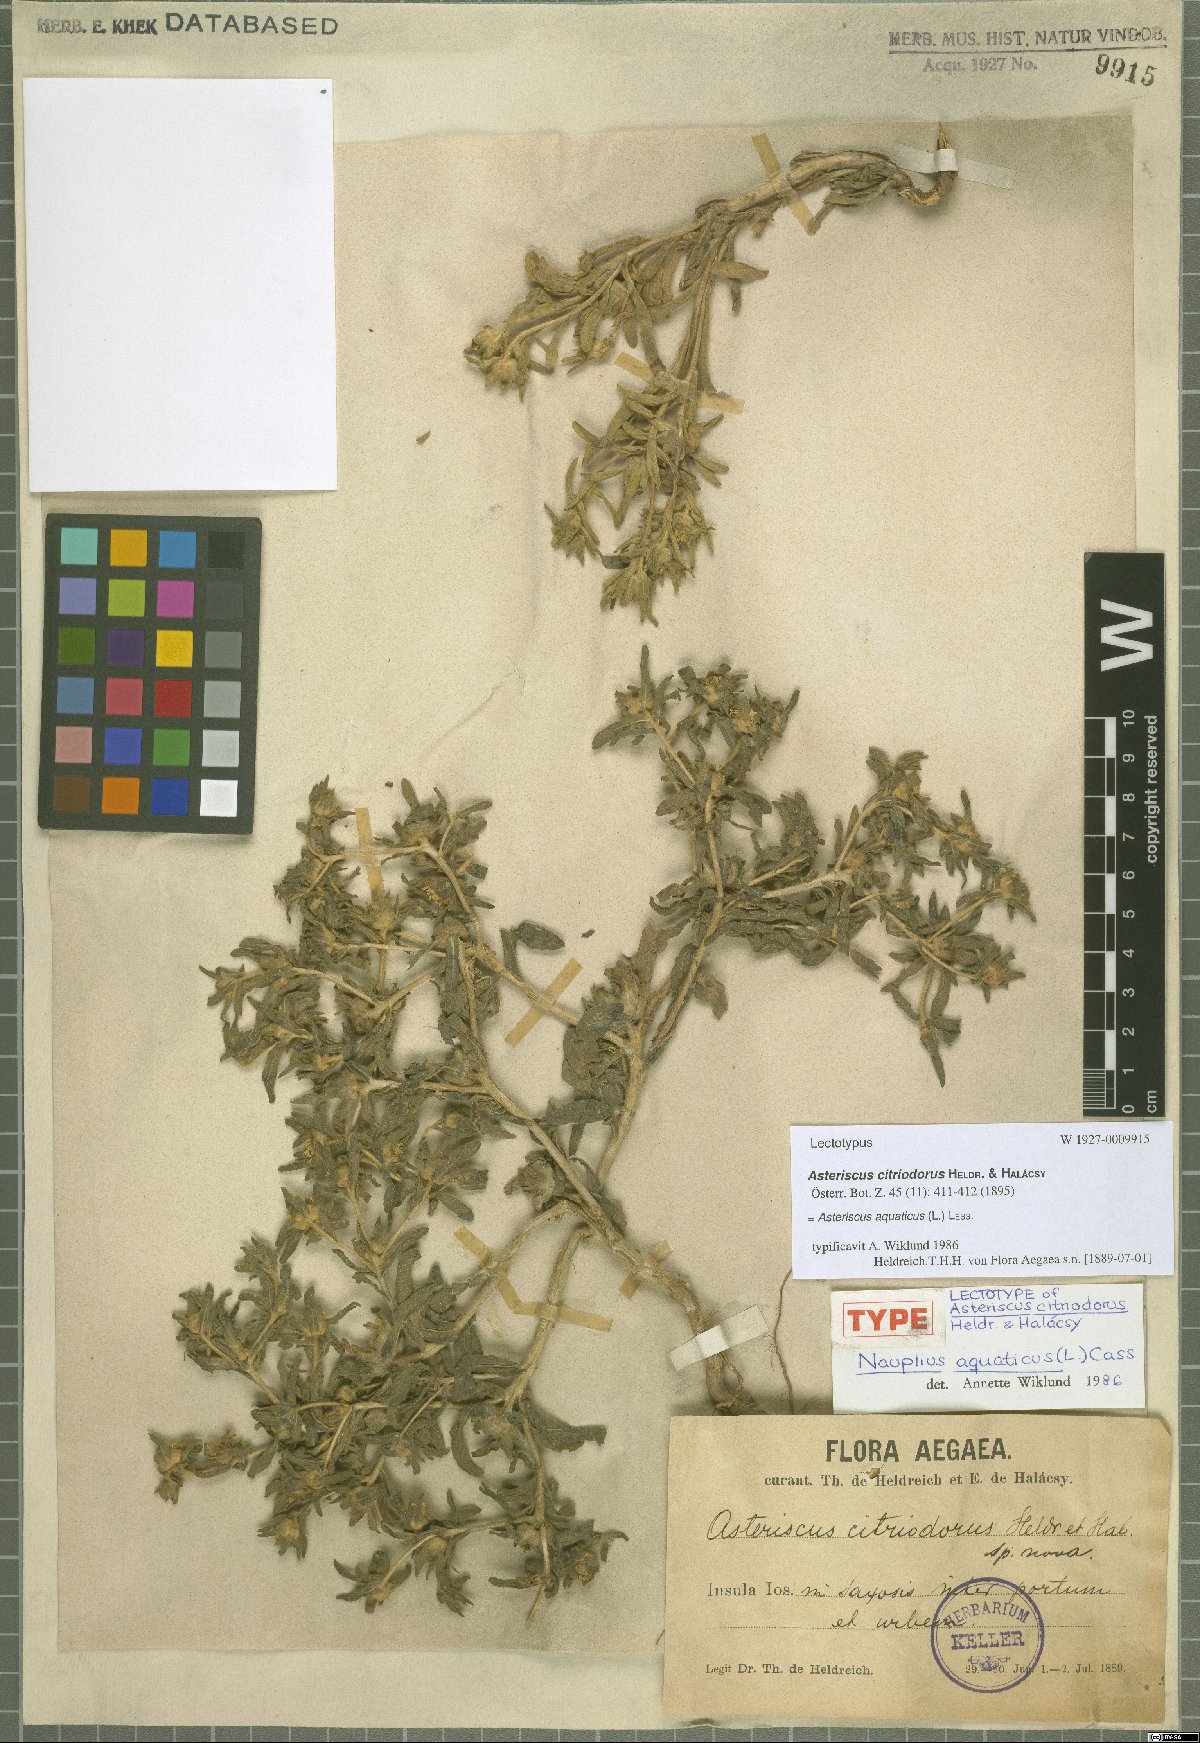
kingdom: Plantae
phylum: Tracheophyta
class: Magnoliopsida
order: Asterales
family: Asteraceae
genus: Asteriscus
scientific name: Asteriscus aquaticus
